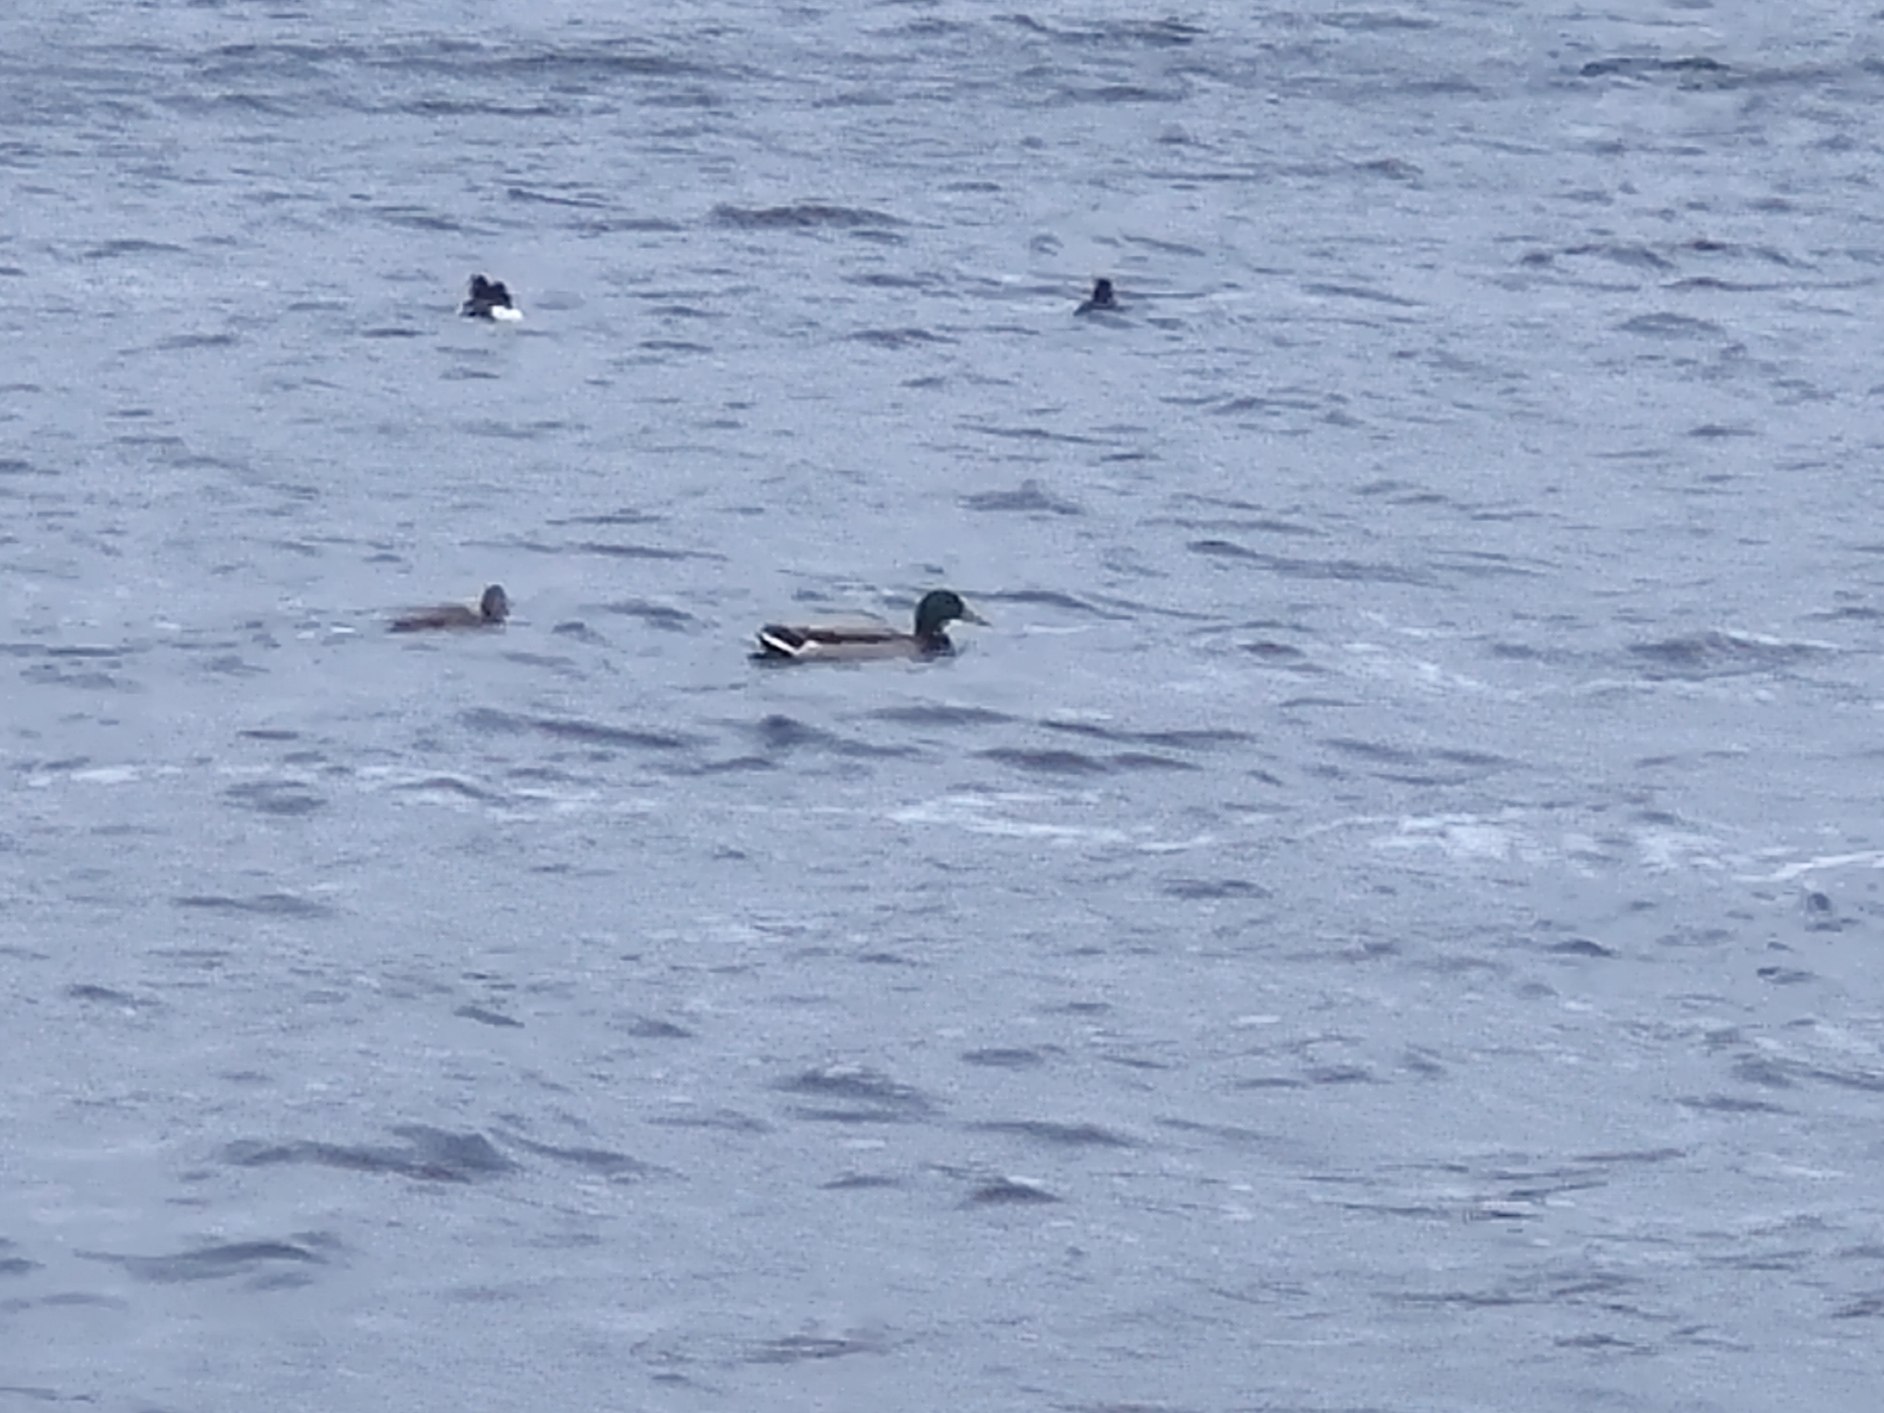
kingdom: Animalia
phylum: Chordata
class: Aves
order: Anseriformes
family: Anatidae
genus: Anas
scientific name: Anas platyrhynchos
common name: Gråand
